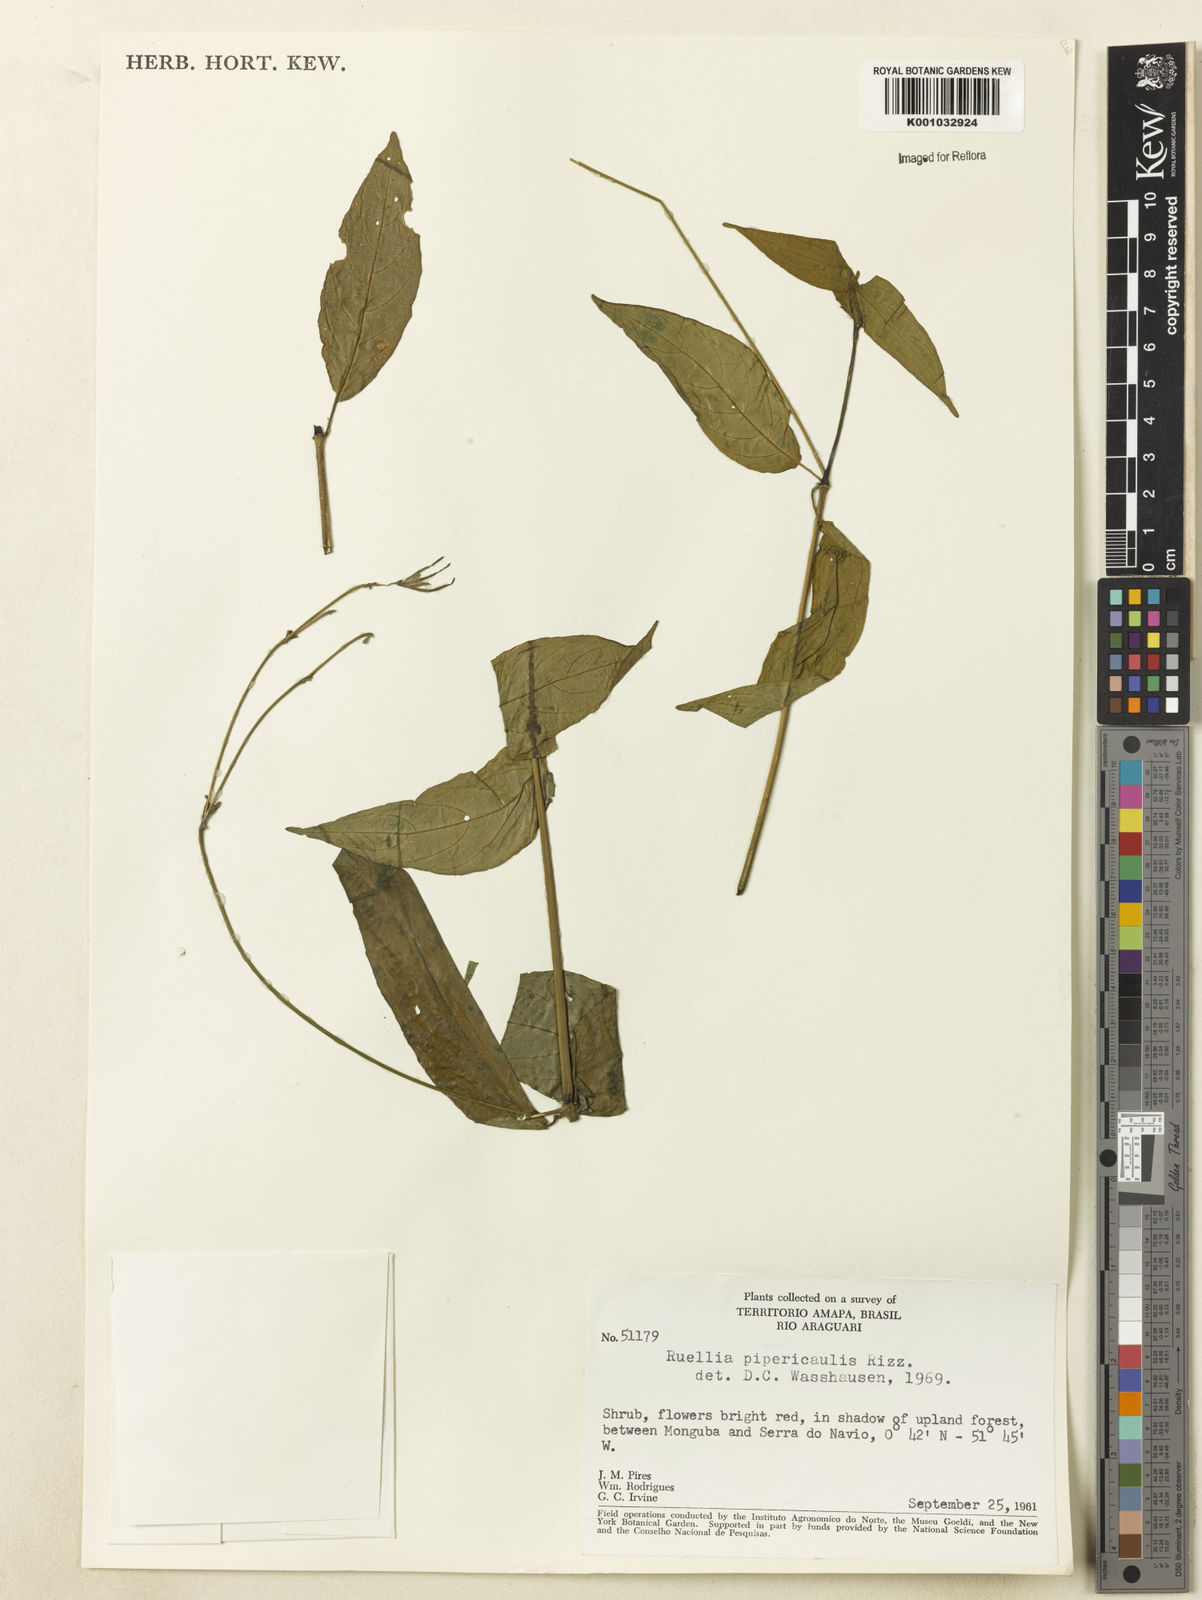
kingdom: Plantae
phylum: Tracheophyta
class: Magnoliopsida
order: Lamiales
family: Acanthaceae
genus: Ruellia
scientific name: Ruellia inflata
